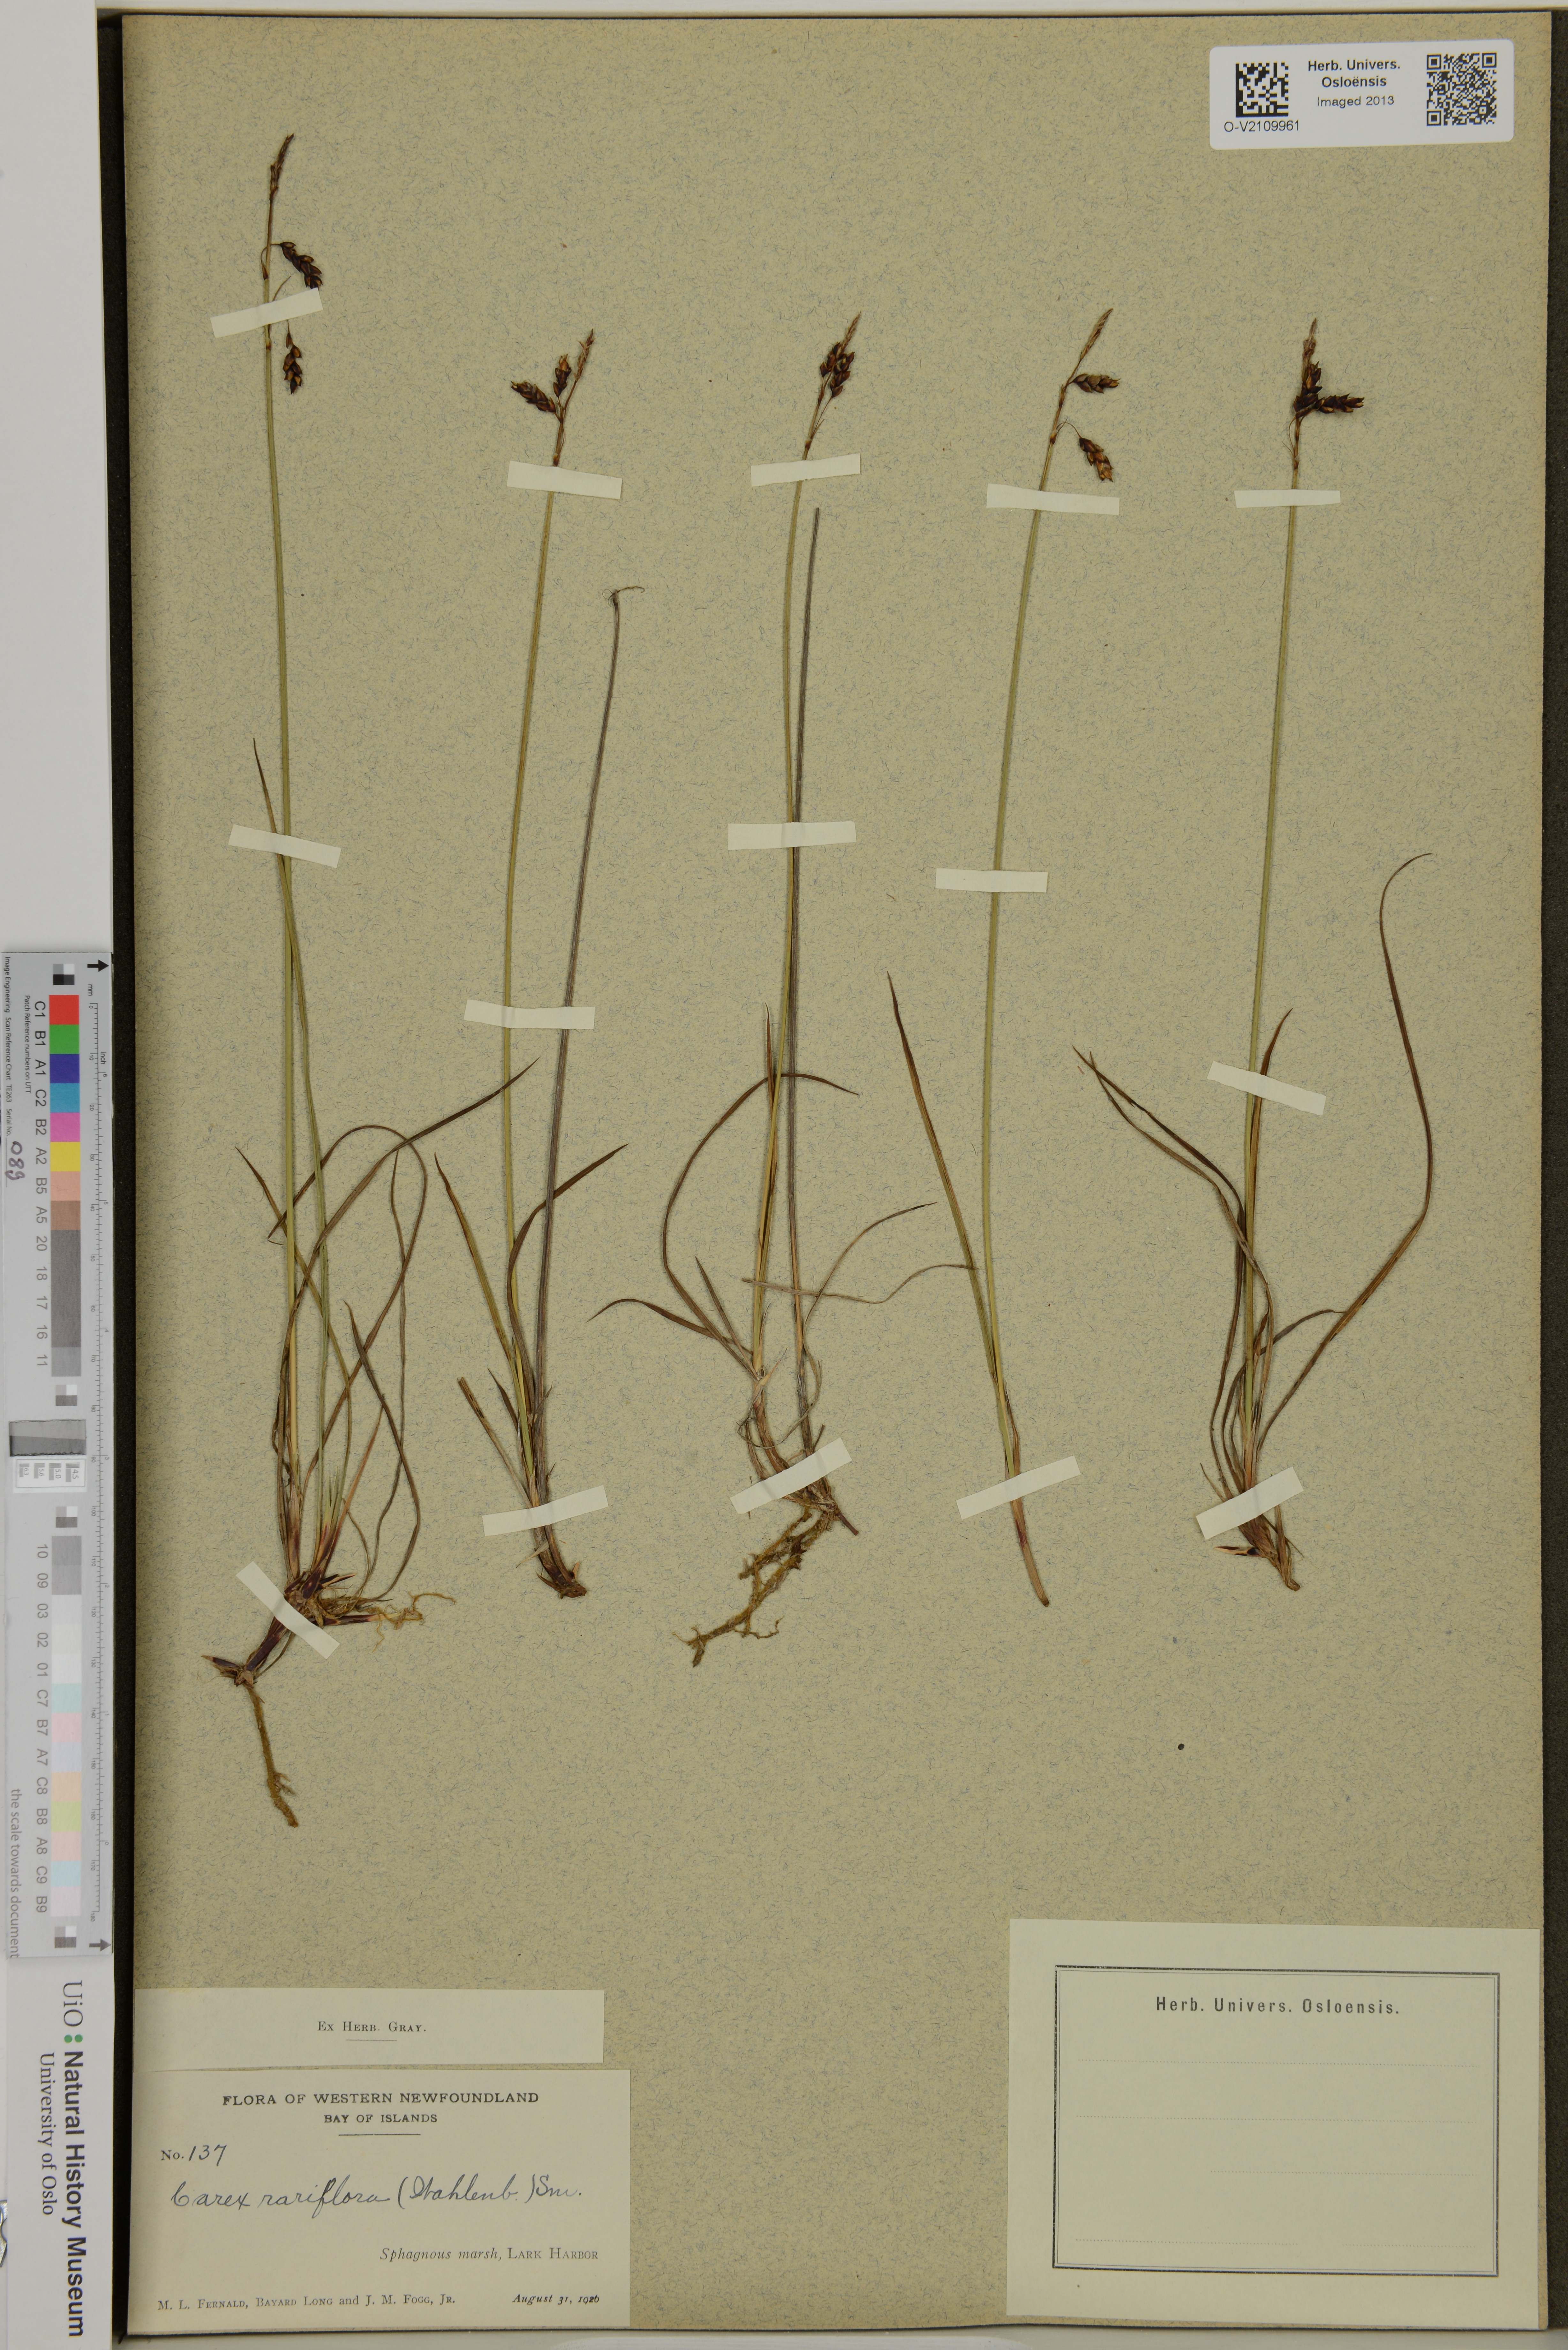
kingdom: Plantae
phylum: Tracheophyta
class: Liliopsida
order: Poales
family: Cyperaceae
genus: Carex
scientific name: Carex rariflora
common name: Loose-flowered alpine sedge
